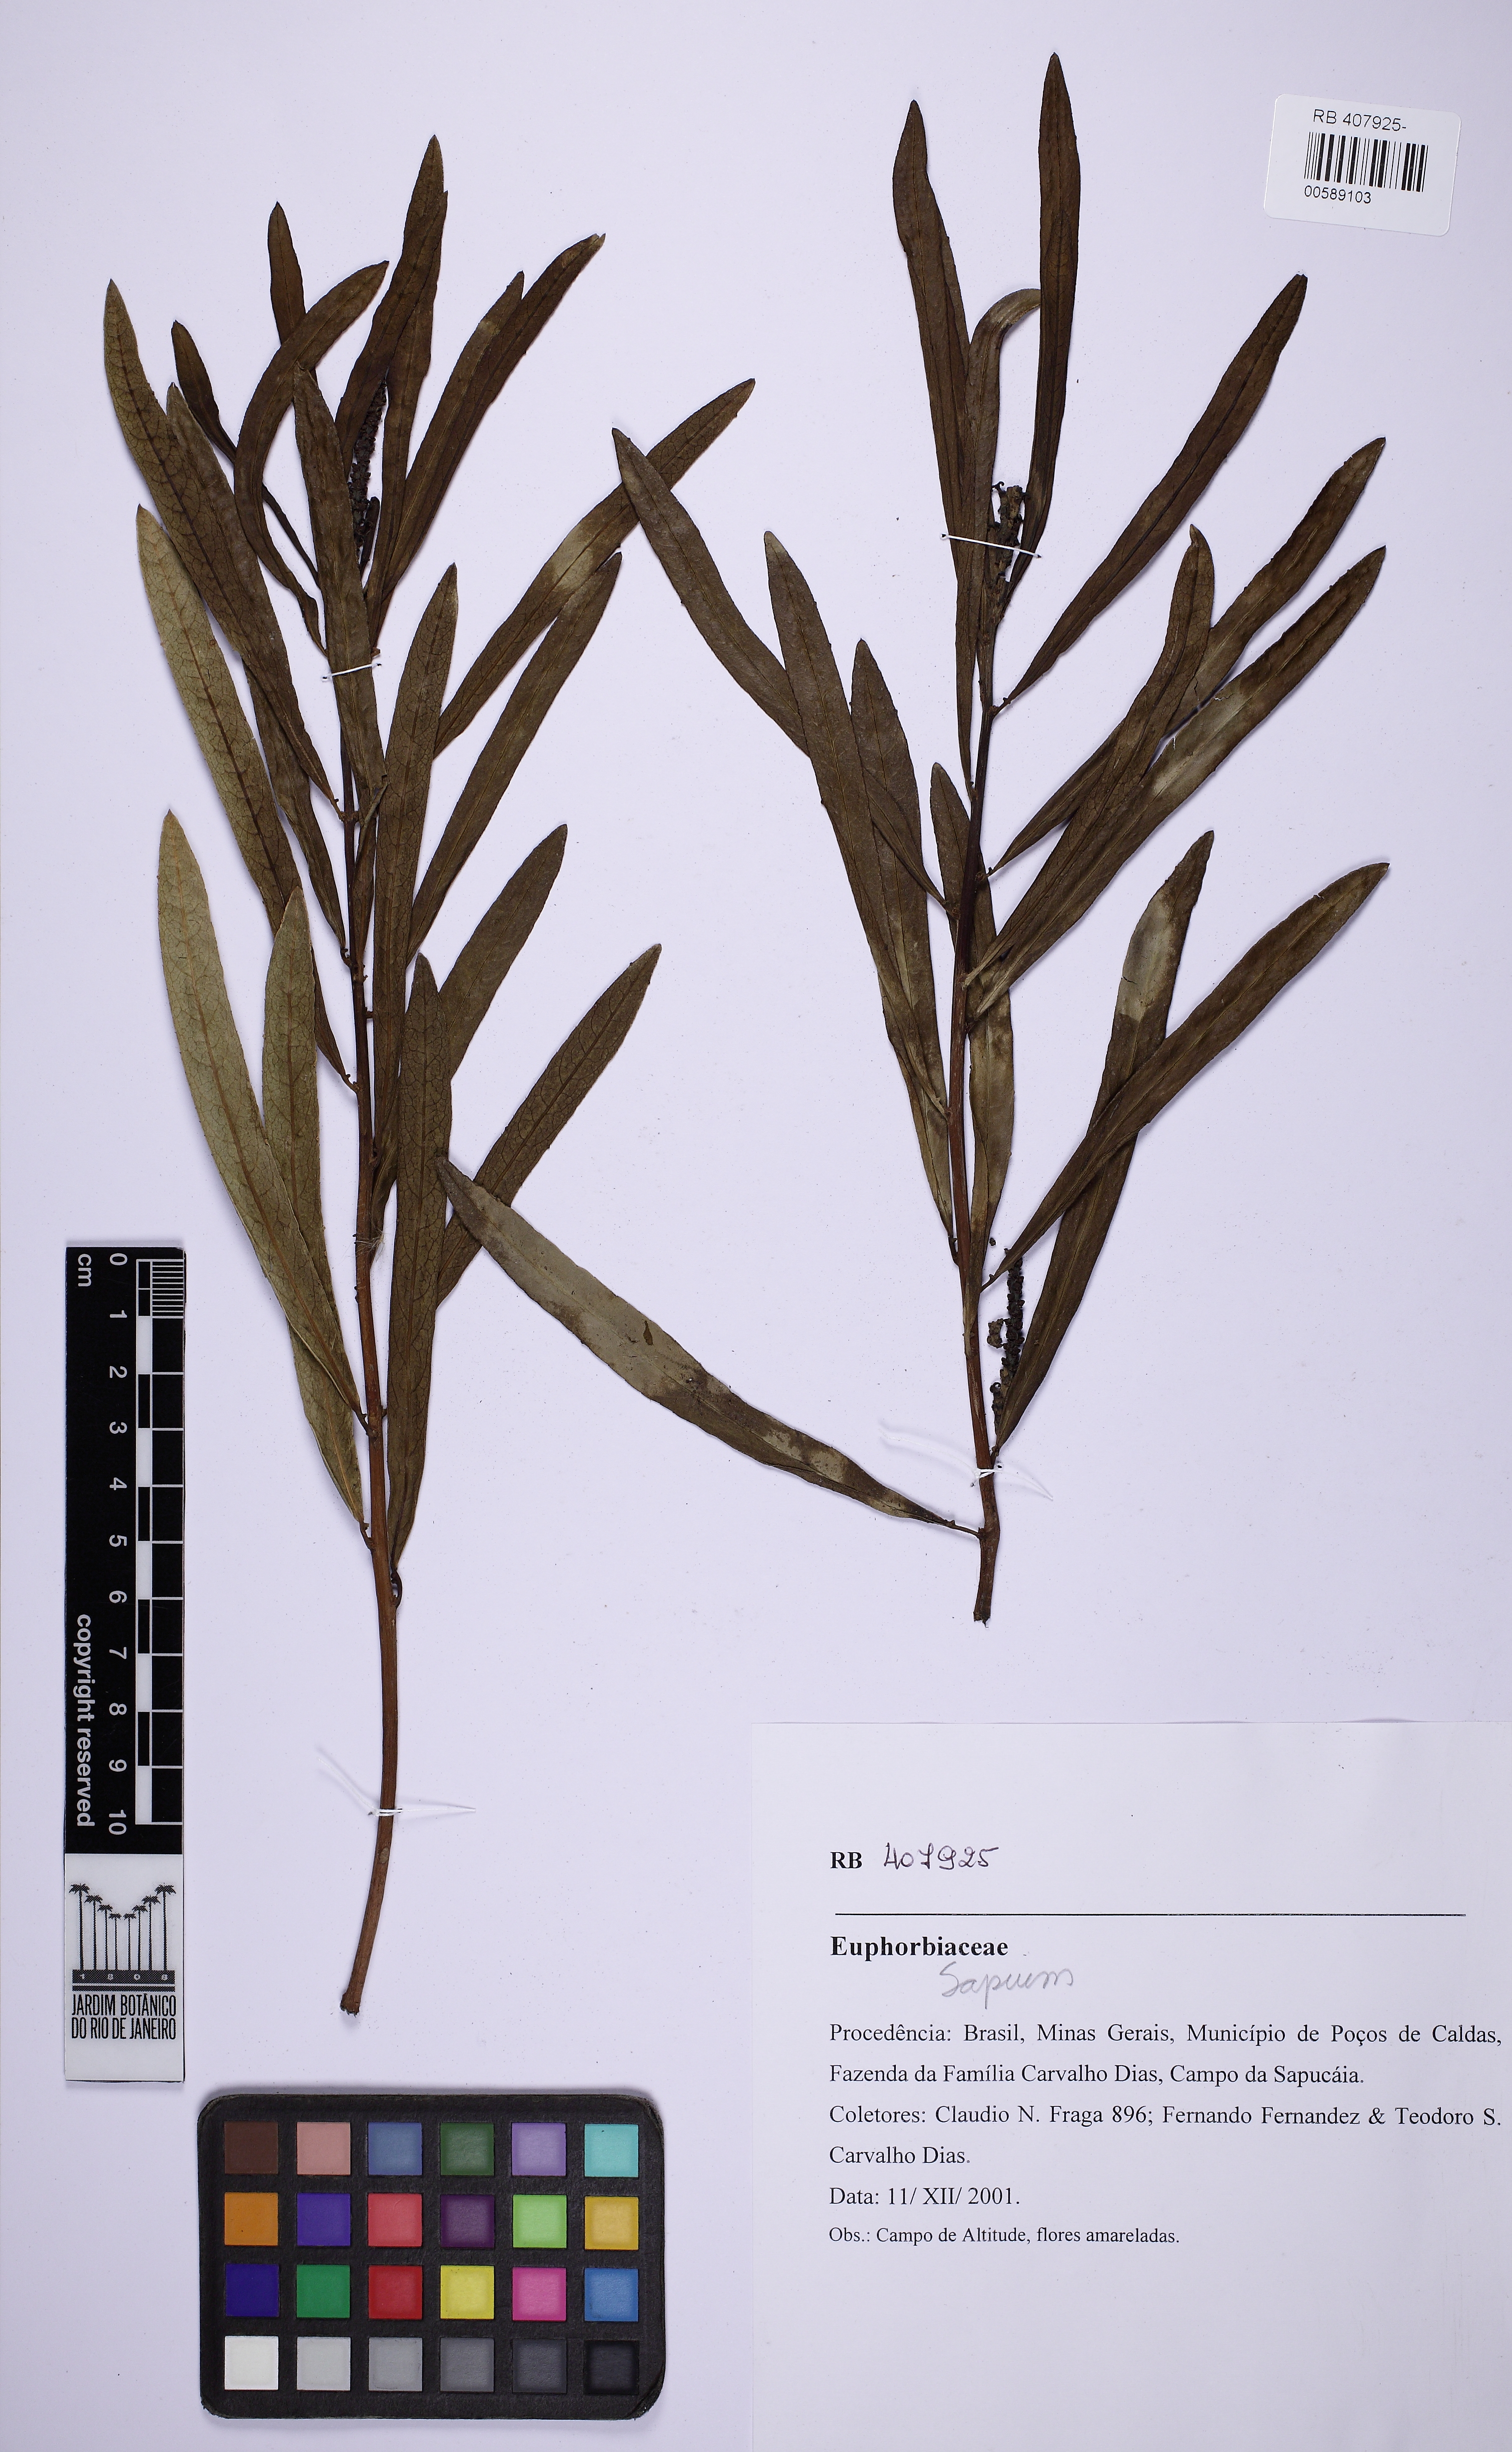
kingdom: Plantae
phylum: Tracheophyta
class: Magnoliopsida
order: Malpighiales
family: Euphorbiaceae
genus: Sapium
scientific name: Sapium
